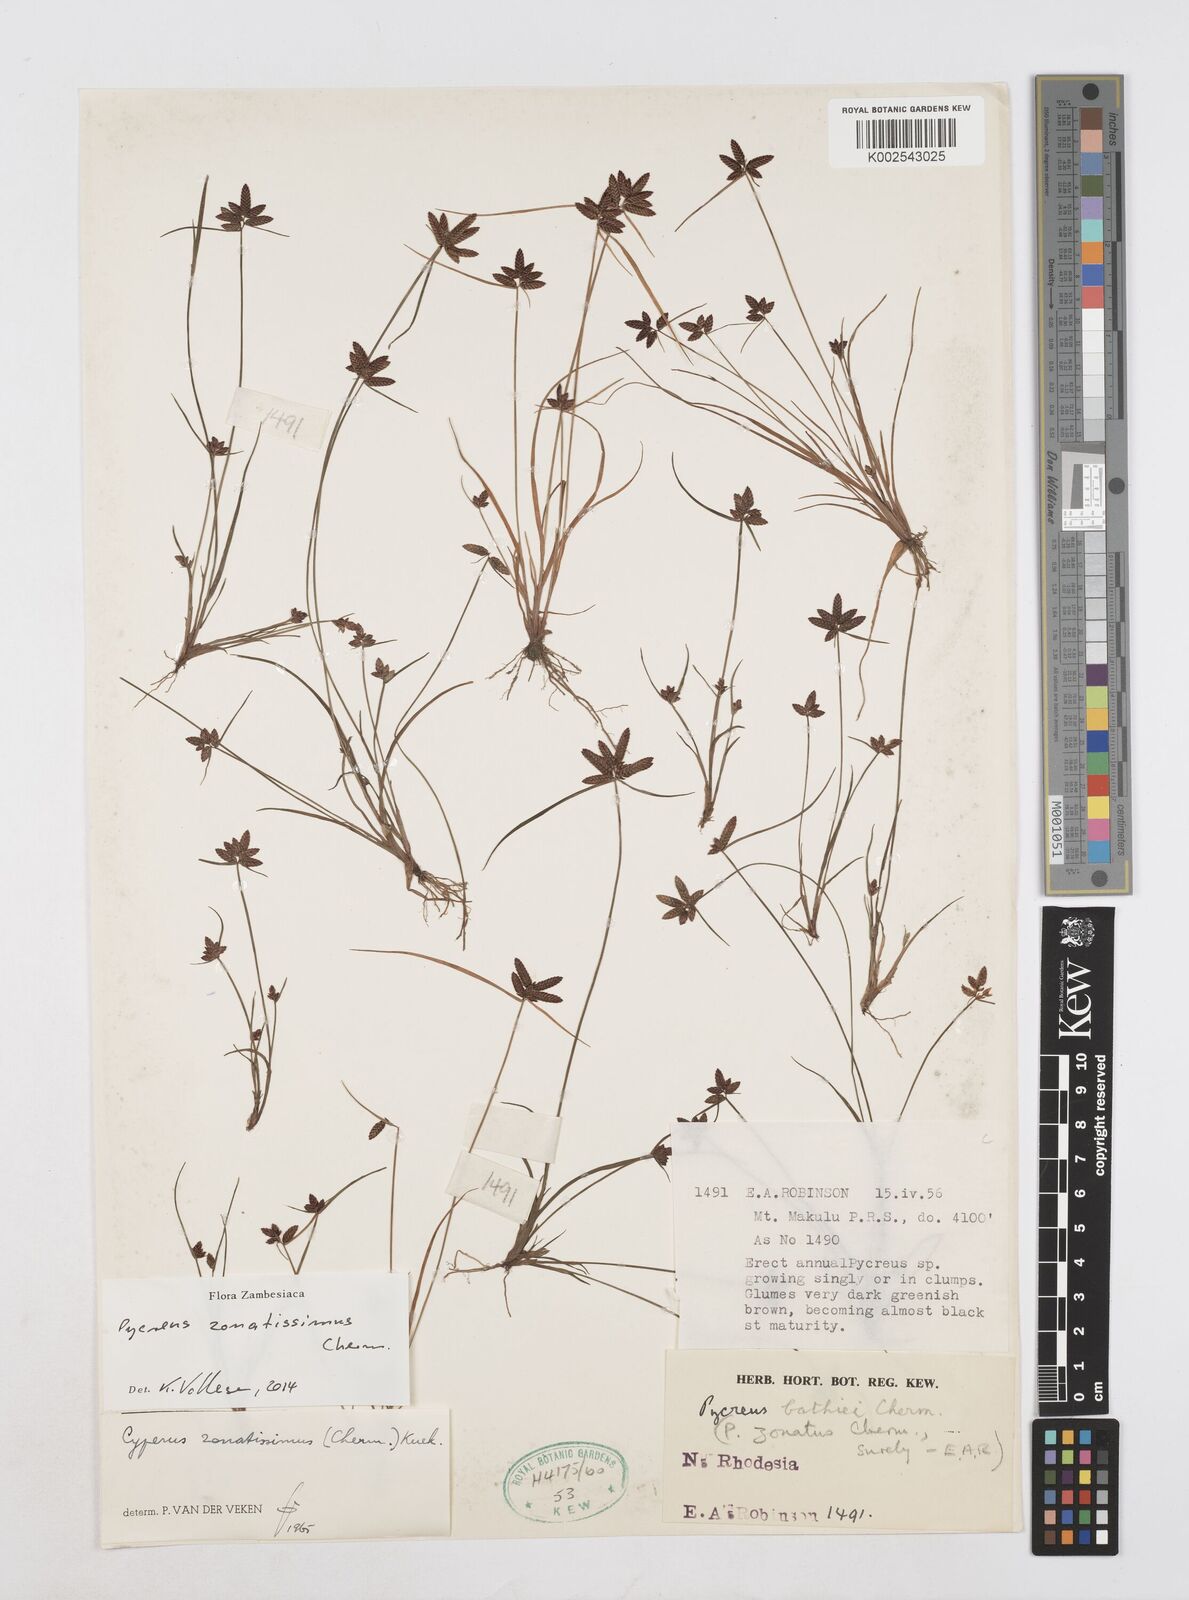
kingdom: Plantae
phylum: Tracheophyta
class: Liliopsida
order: Poales
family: Cyperaceae
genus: Cyperus
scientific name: Cyperus zonatissimus
